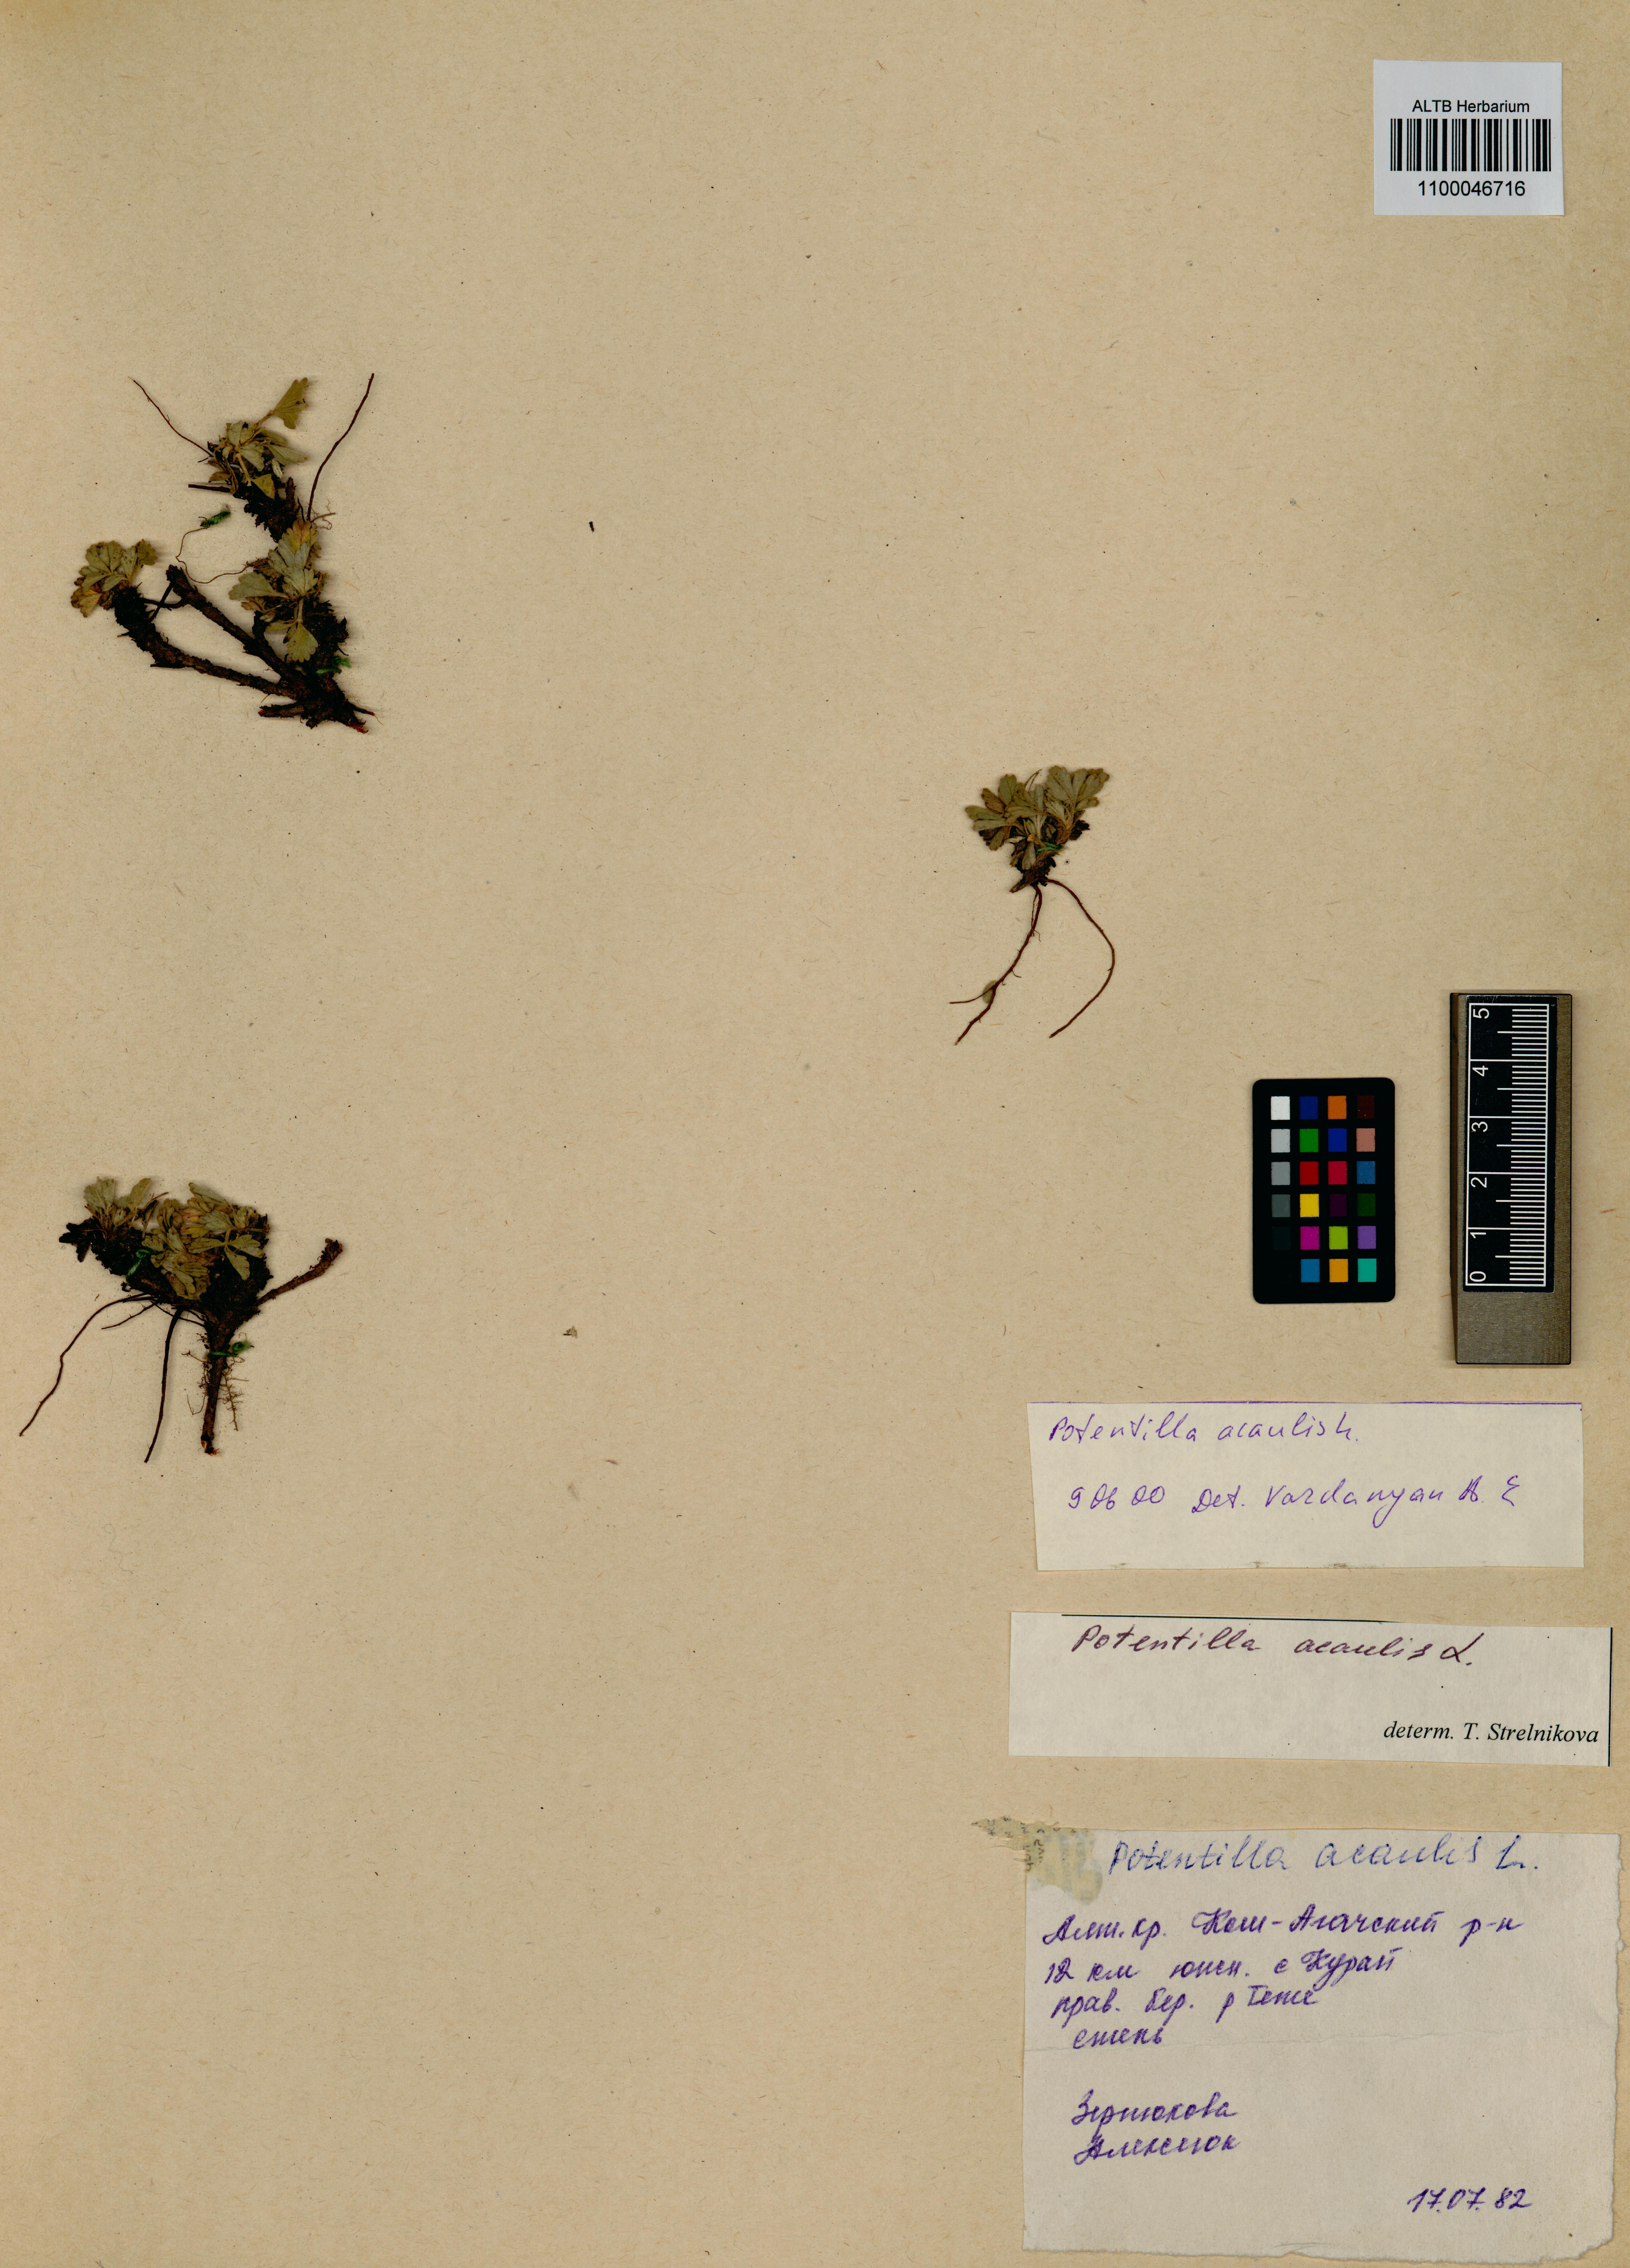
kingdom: Plantae
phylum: Tracheophyta
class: Magnoliopsida
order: Rosales
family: Rosaceae
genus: Potentilla
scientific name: Potentilla acaulis
